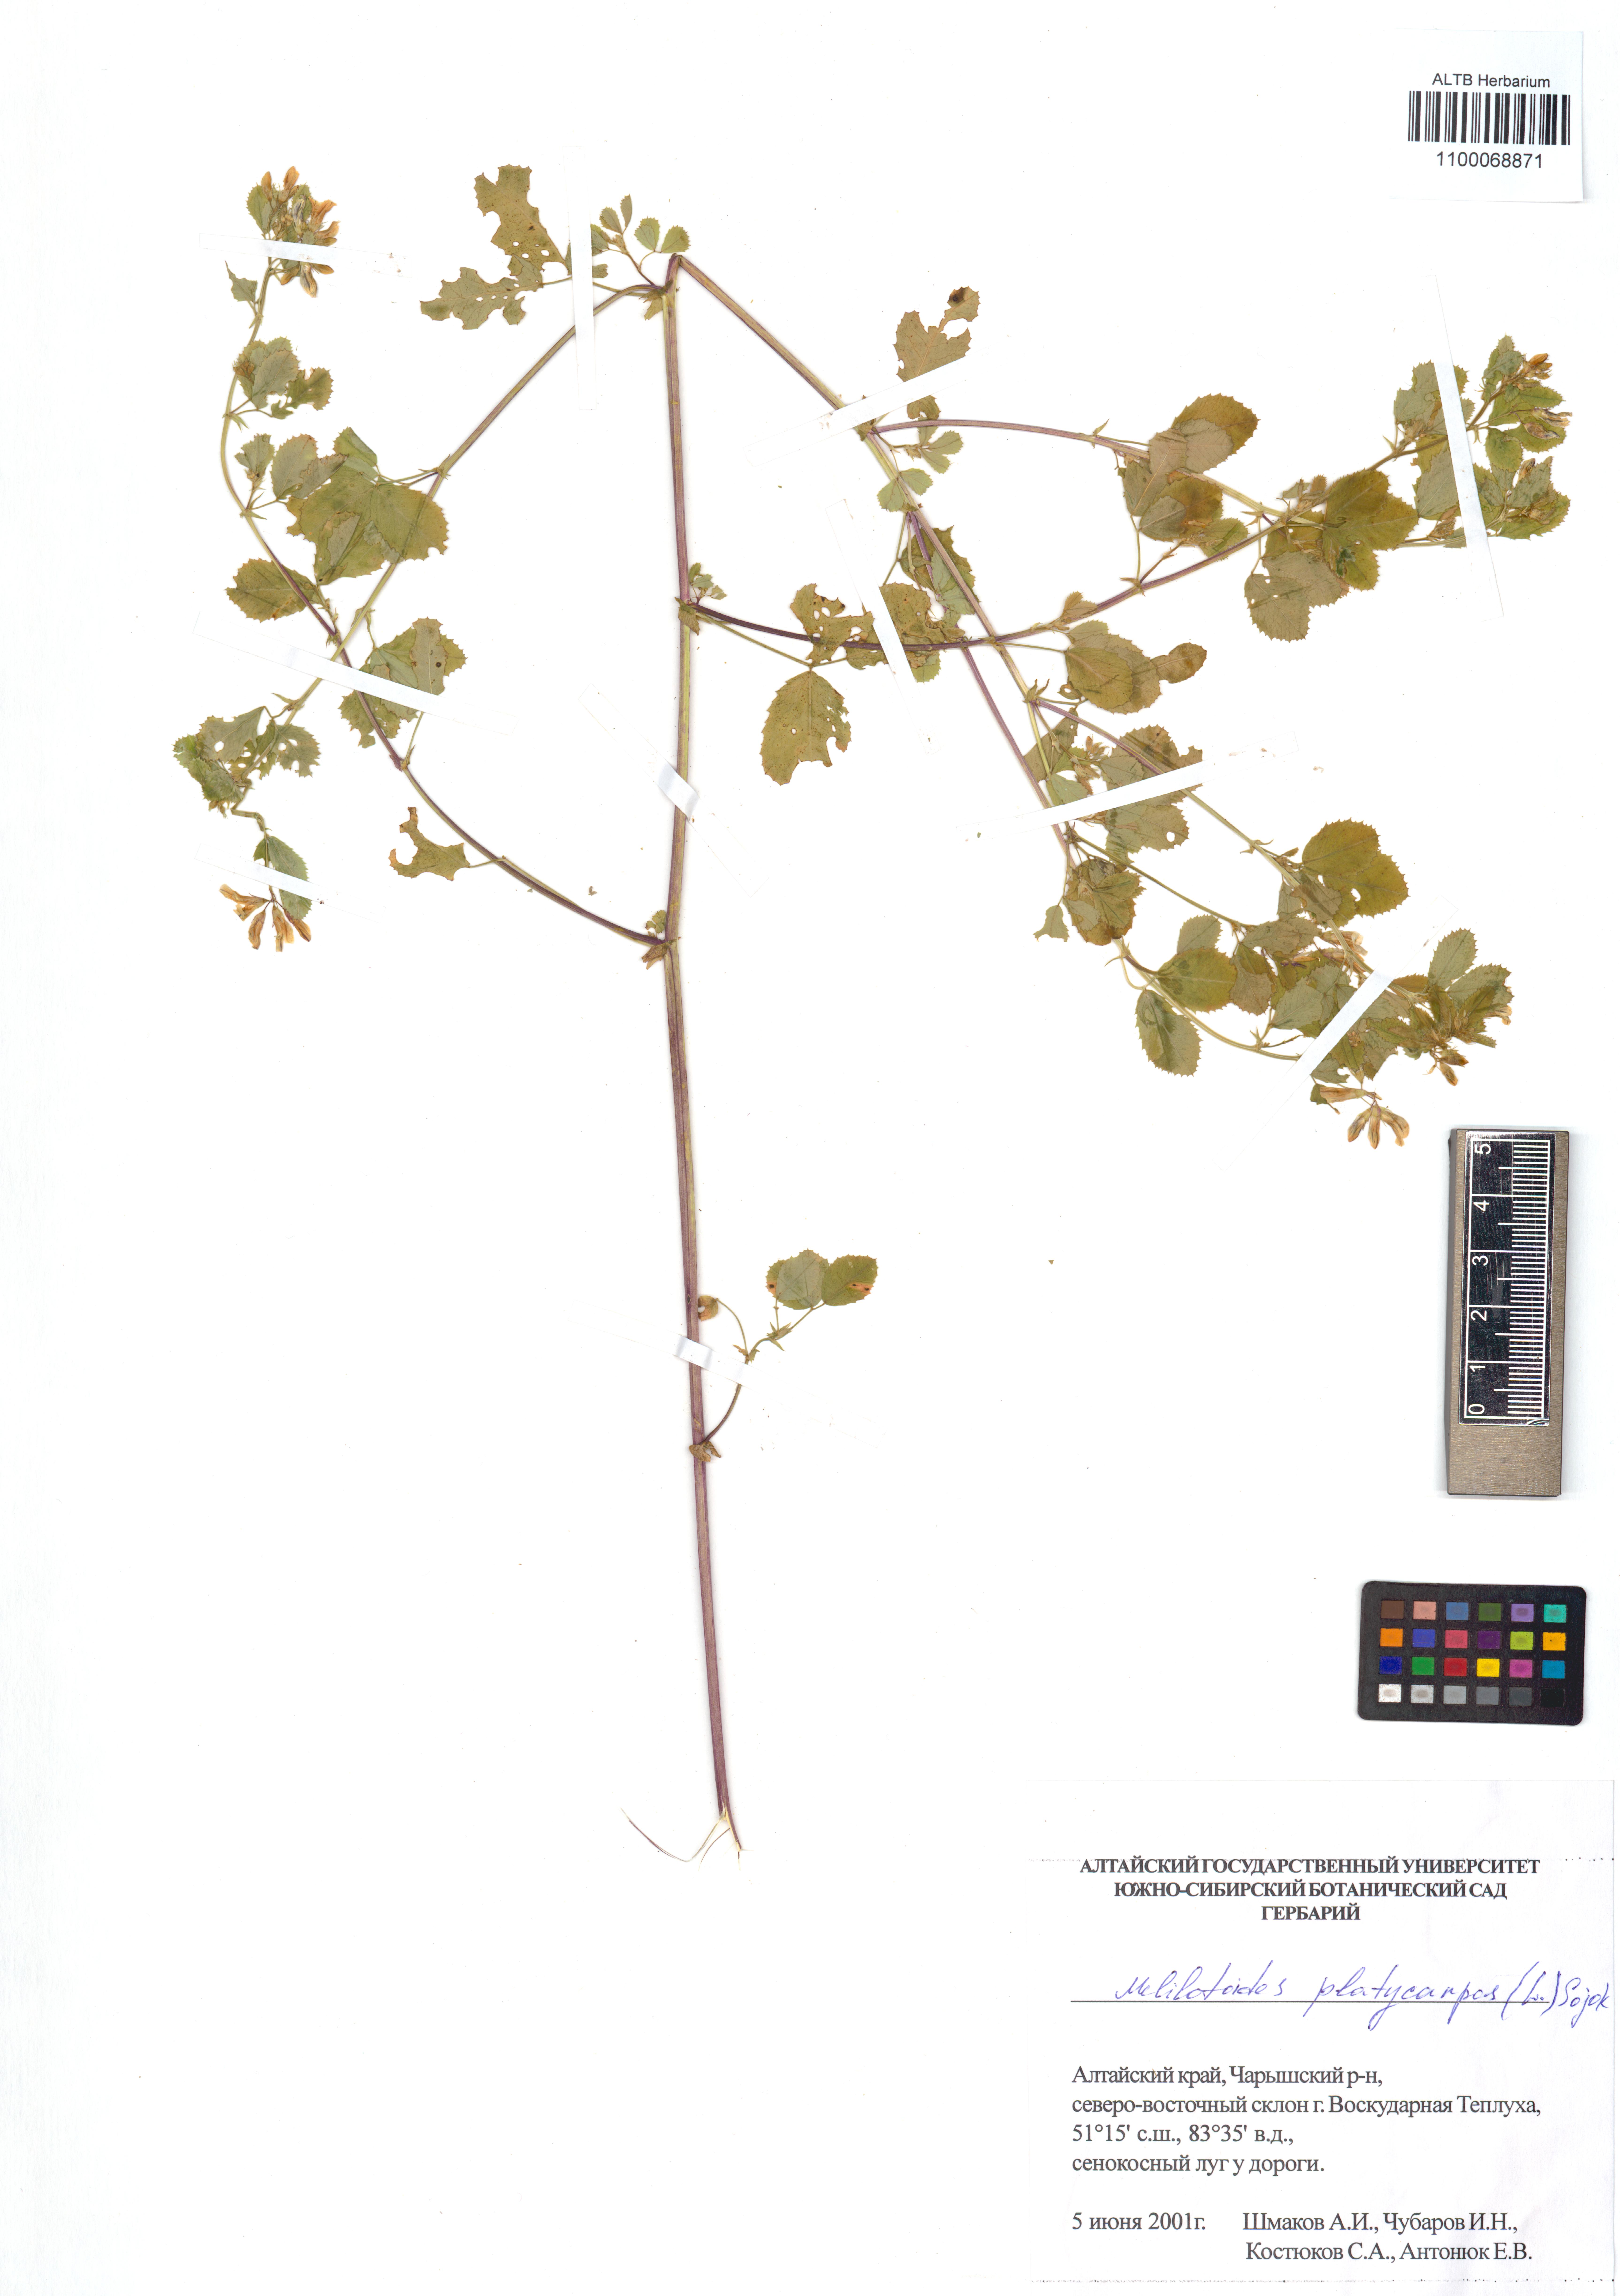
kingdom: Plantae
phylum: Tracheophyta
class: Magnoliopsida
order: Fabales
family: Fabaceae
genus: Medicago
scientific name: Medicago platycarpos
